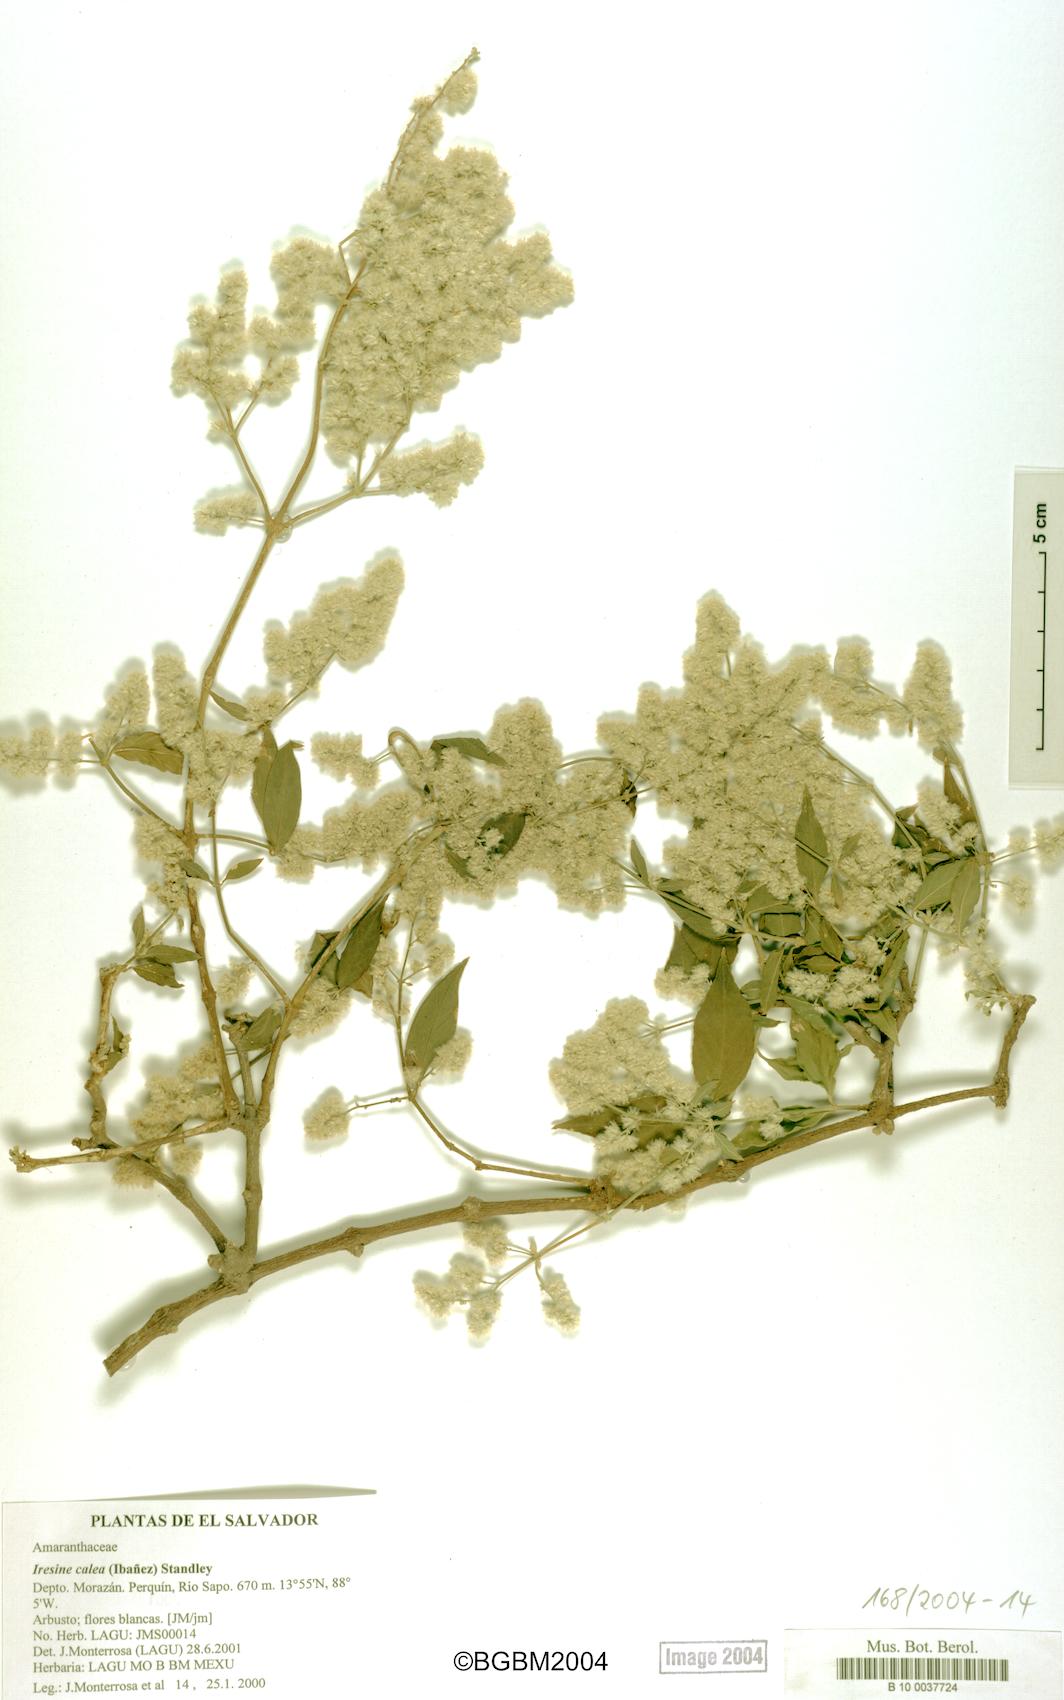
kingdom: Plantae
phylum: Tracheophyta
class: Magnoliopsida
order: Caryophyllales
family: Amaranthaceae
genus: Iresine
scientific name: Iresine latifolia
